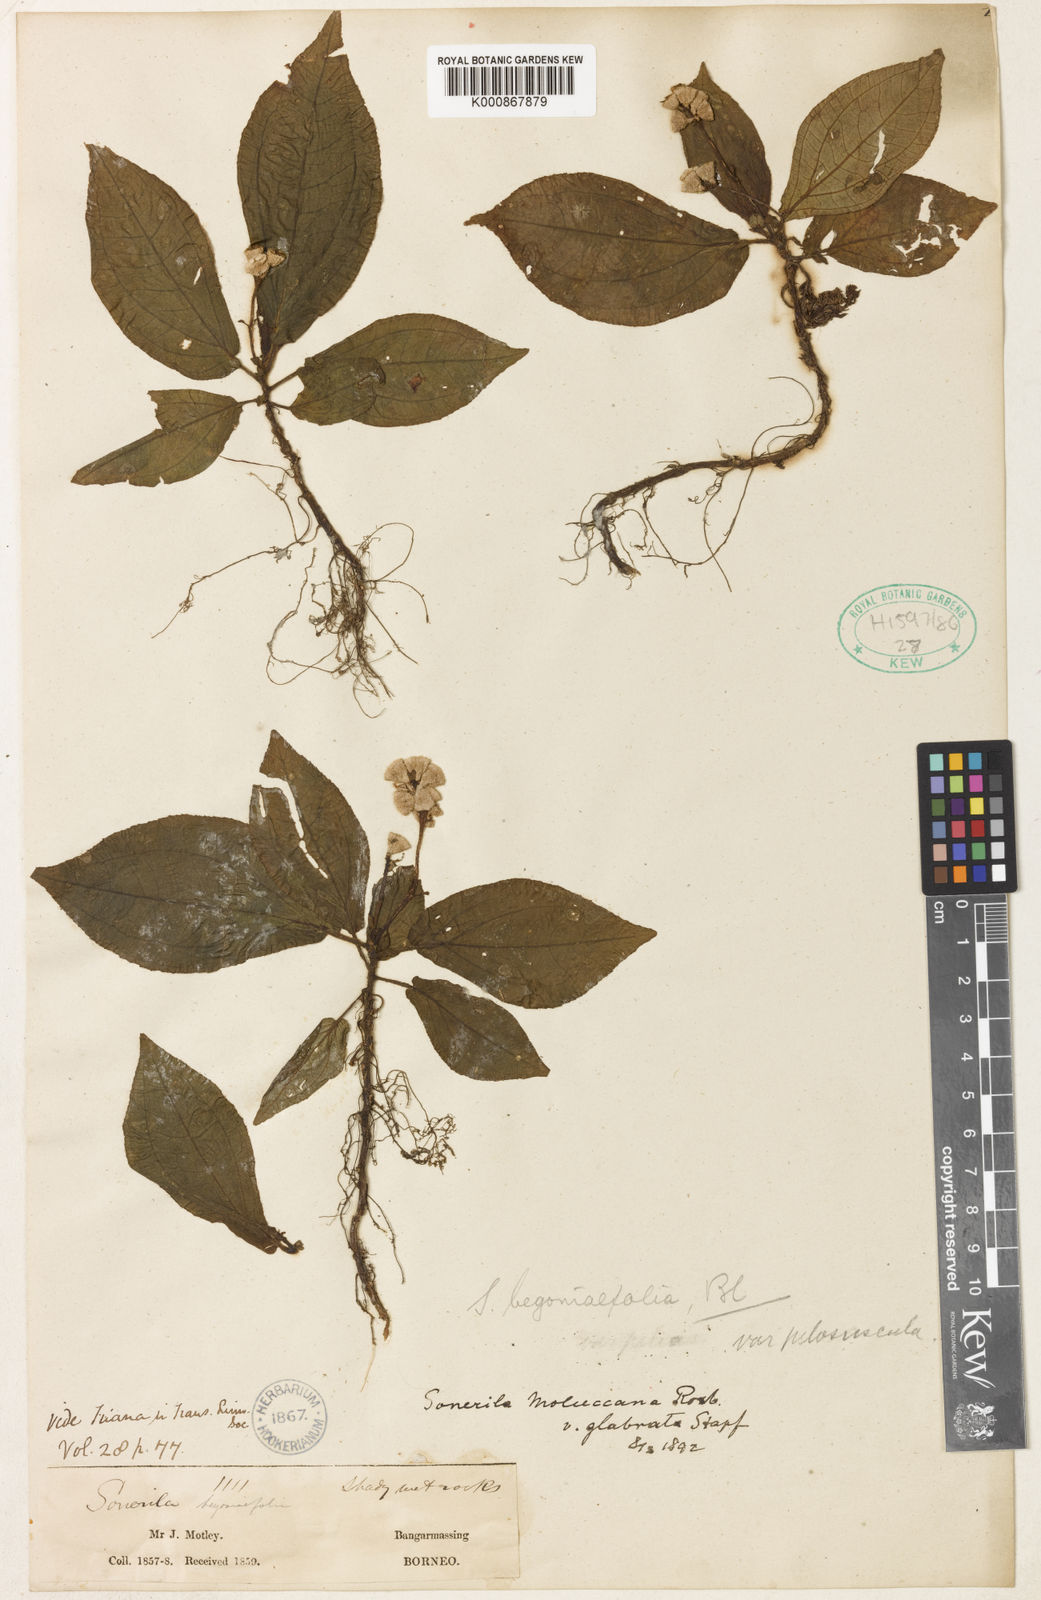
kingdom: Plantae
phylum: Tracheophyta
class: Magnoliopsida
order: Myrtales
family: Melastomataceae
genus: Sonerila
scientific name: Sonerila moluccana
